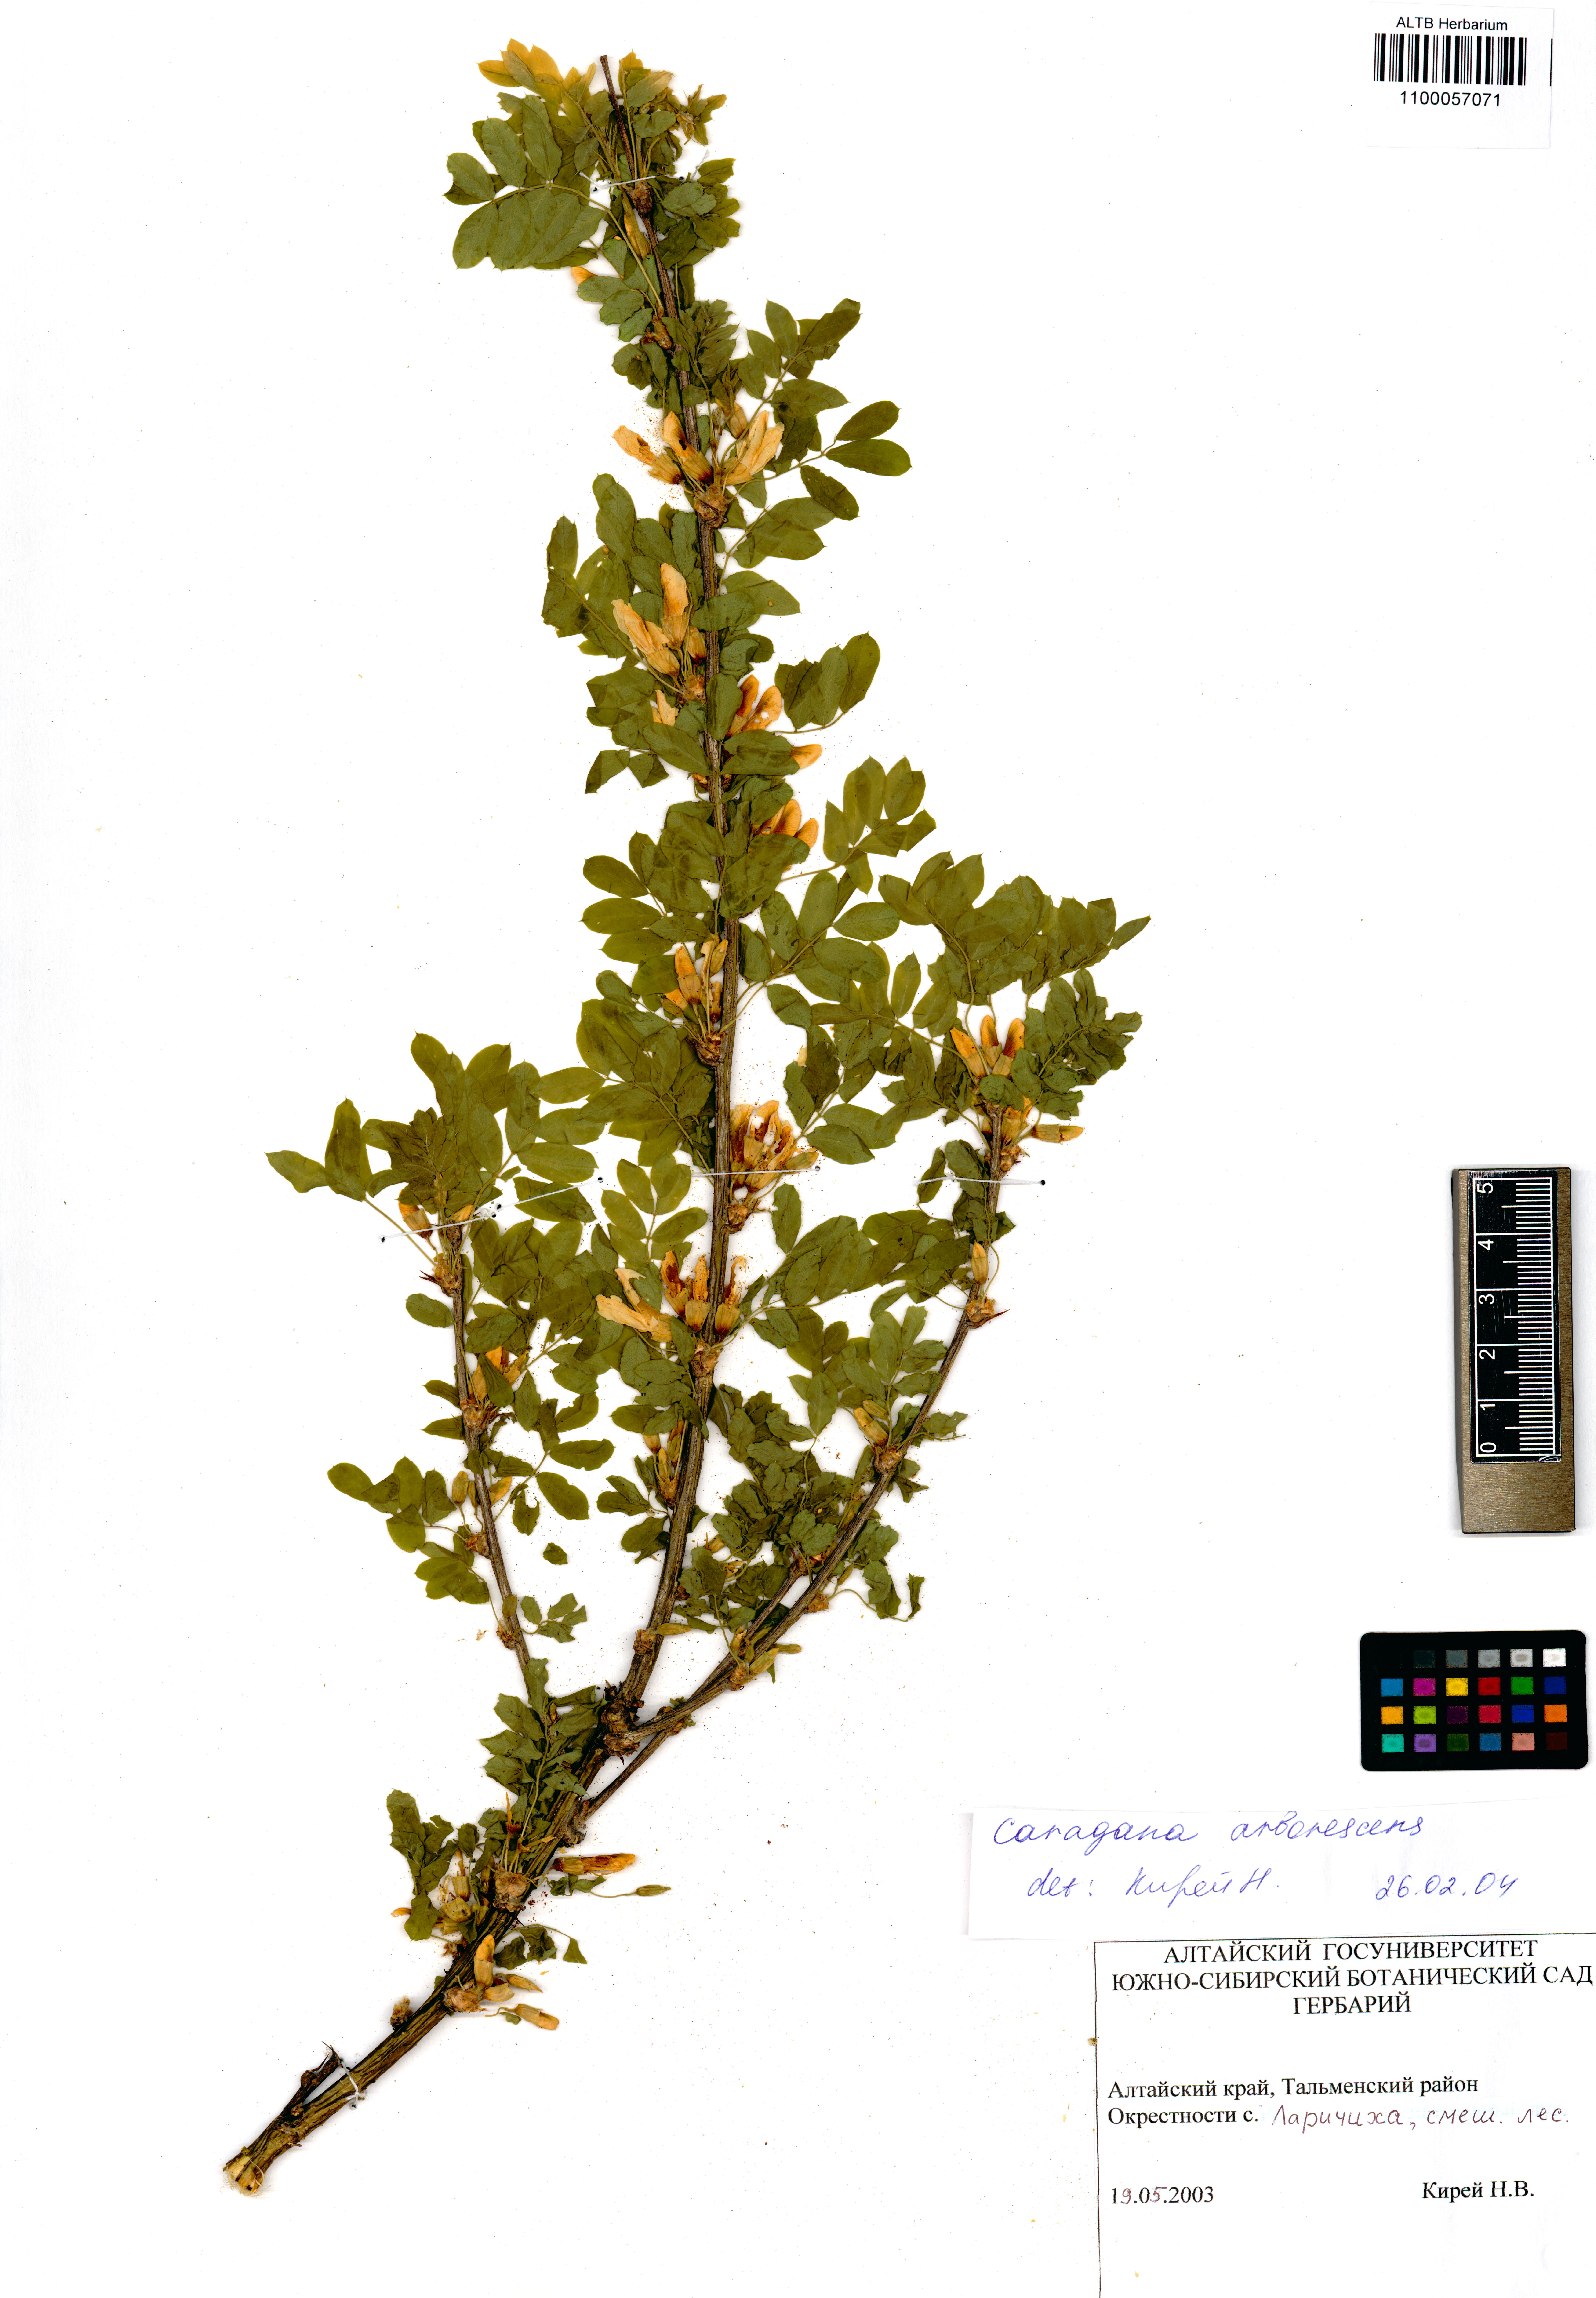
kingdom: Plantae
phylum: Tracheophyta
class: Magnoliopsida
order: Fabales
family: Fabaceae
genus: Caragana
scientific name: Caragana arborescens
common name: Siberian peashrub
